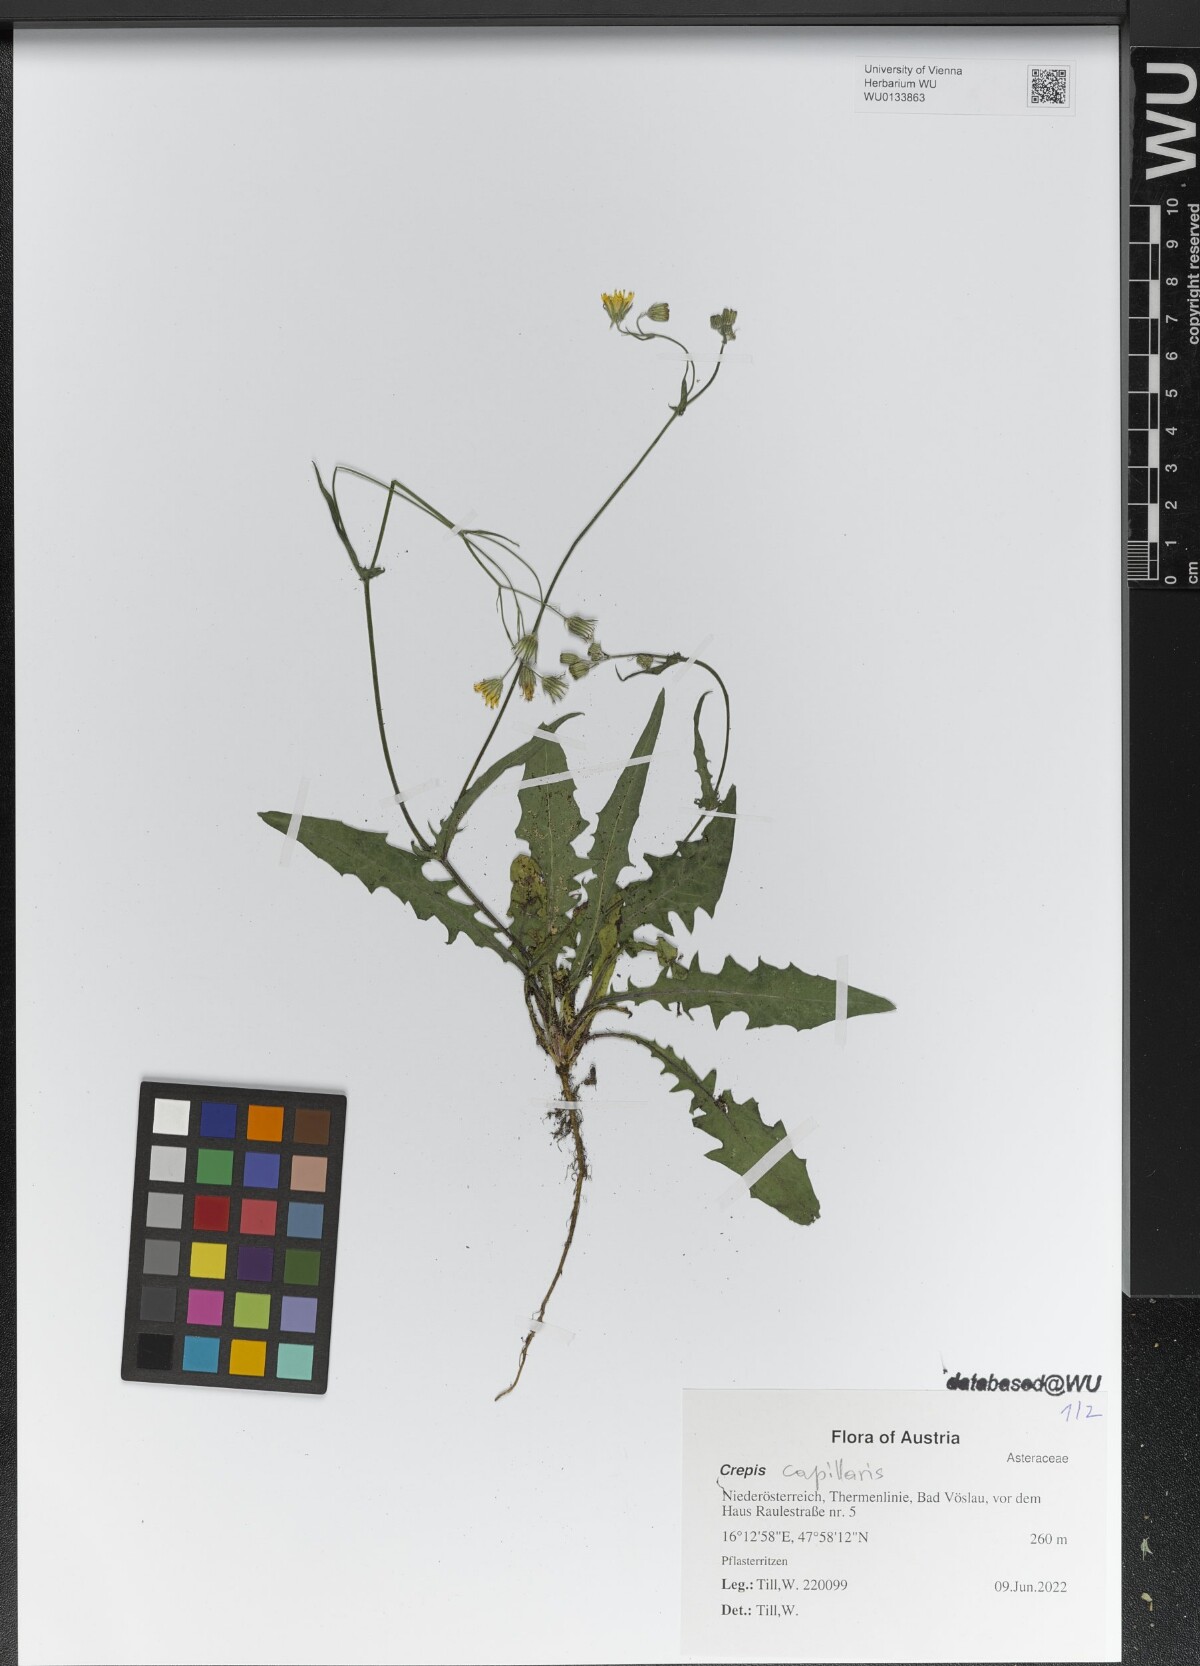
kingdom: Plantae
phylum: Tracheophyta
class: Magnoliopsida
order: Asterales
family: Asteraceae
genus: Crepis
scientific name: Crepis capillaris
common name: Smooth hawksbeard
